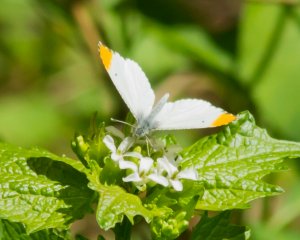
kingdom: Animalia
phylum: Arthropoda
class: Insecta
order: Lepidoptera
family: Pieridae
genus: Anthocharis
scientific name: Anthocharis midea
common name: Falcate Orangetip
